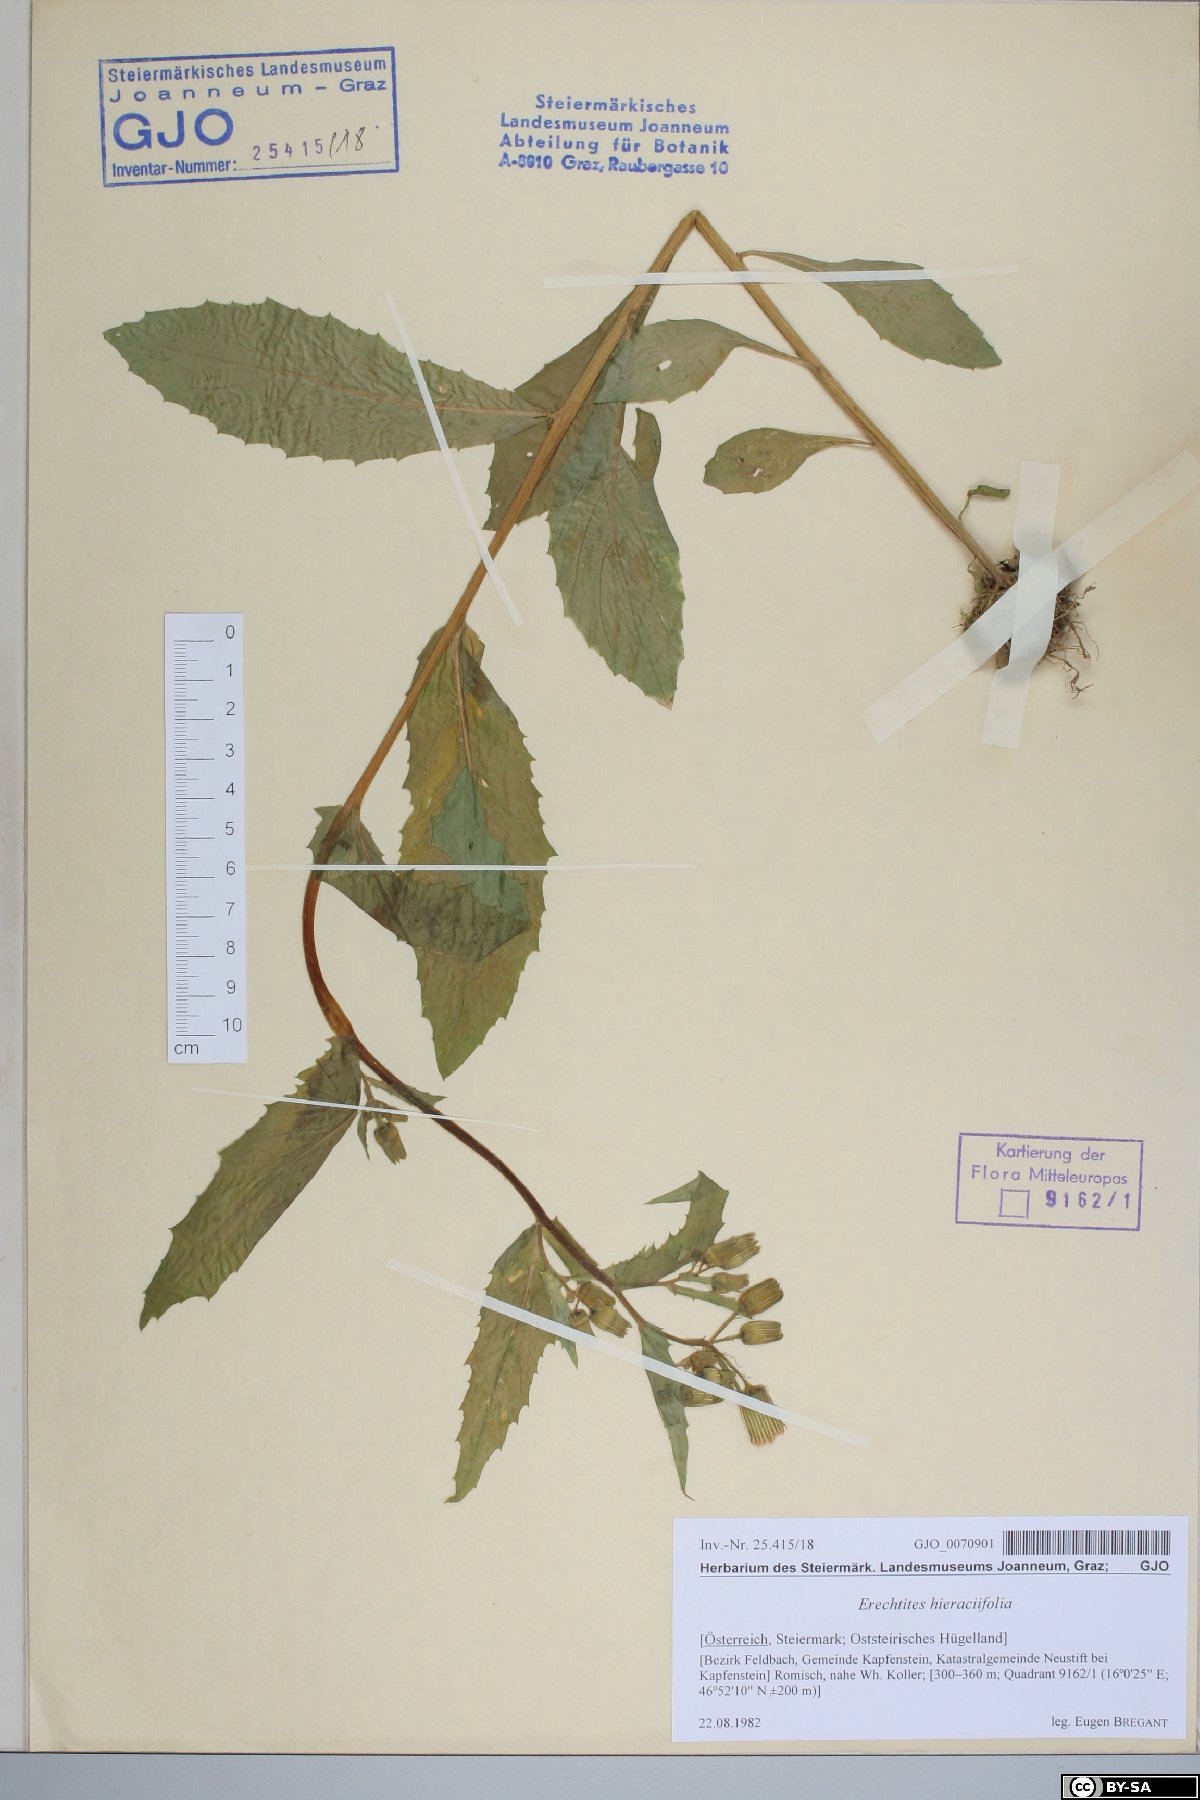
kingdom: Plantae
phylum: Tracheophyta
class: Magnoliopsida
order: Asterales
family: Asteraceae
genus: Erechtites
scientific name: Erechtites hieraciifolius
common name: American burnweed
